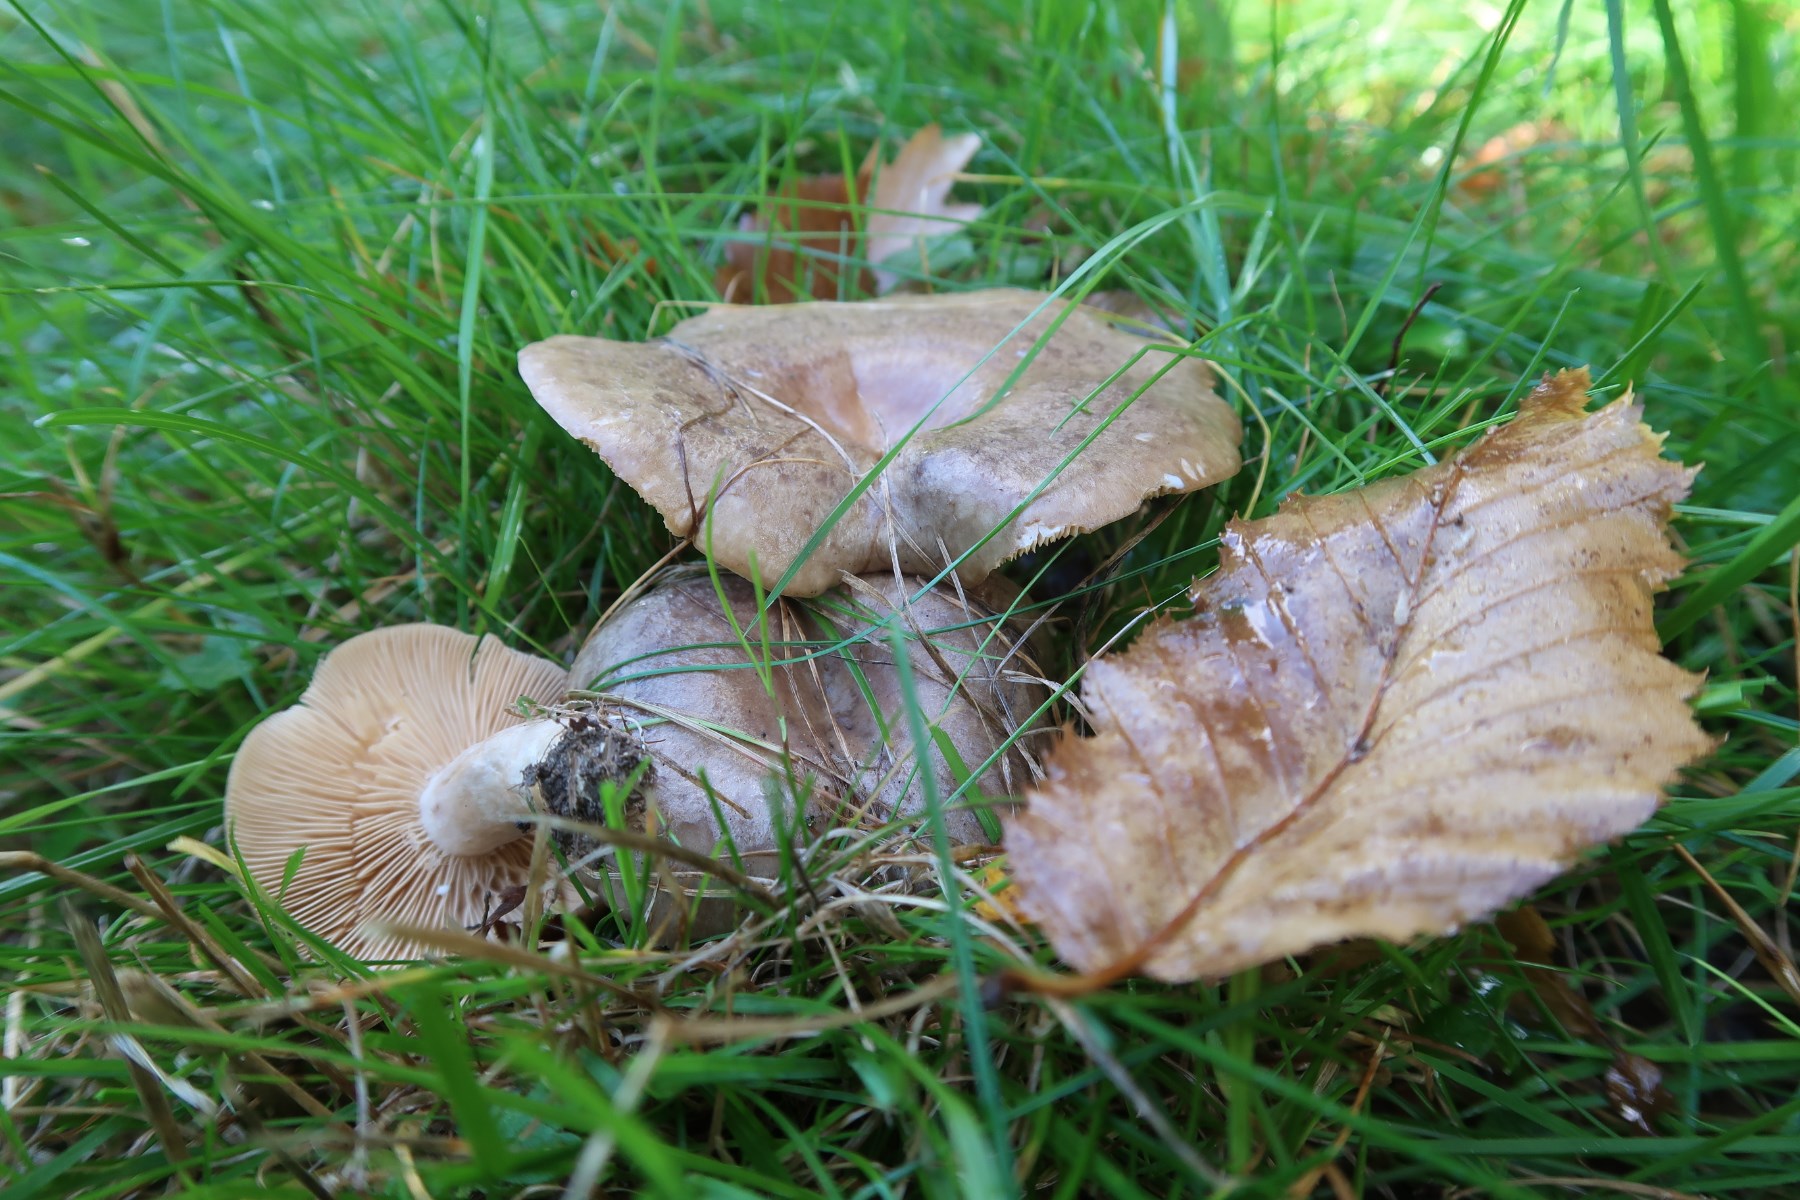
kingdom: Fungi
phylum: Basidiomycota
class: Agaricomycetes
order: Russulales
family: Russulaceae
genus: Lactarius
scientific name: Lactarius circellatus
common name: avnbøg-mælkehat
